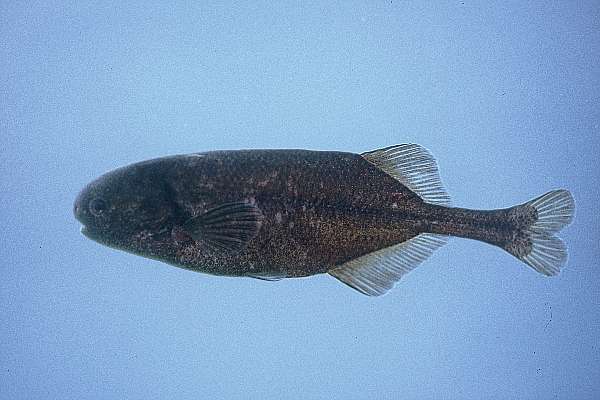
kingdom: Animalia
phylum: Chordata
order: Osteoglossiformes
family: Mormyridae
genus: Pollimyrus
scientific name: Pollimyrus
